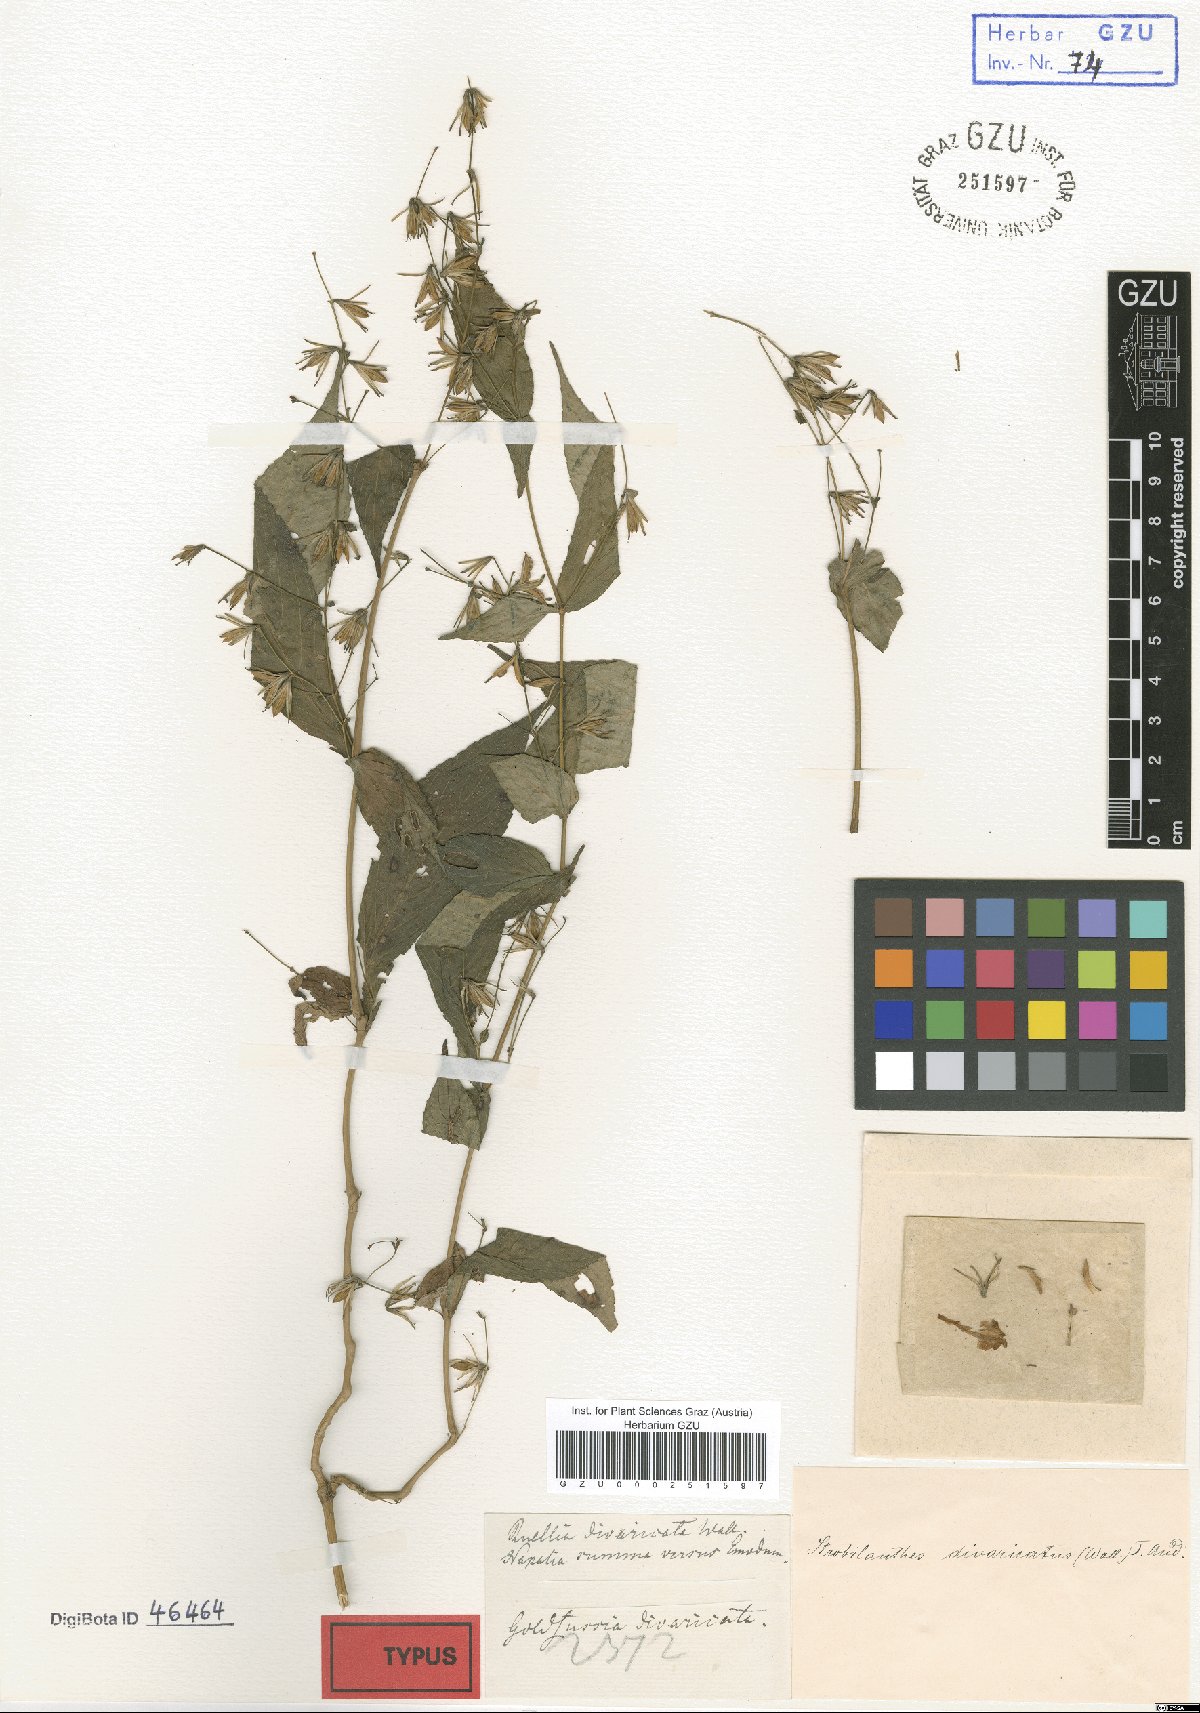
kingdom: Plantae
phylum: Tracheophyta
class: Magnoliopsida
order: Lamiales
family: Acanthaceae
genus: Strobilanthes
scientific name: Strobilanthes divaricata
